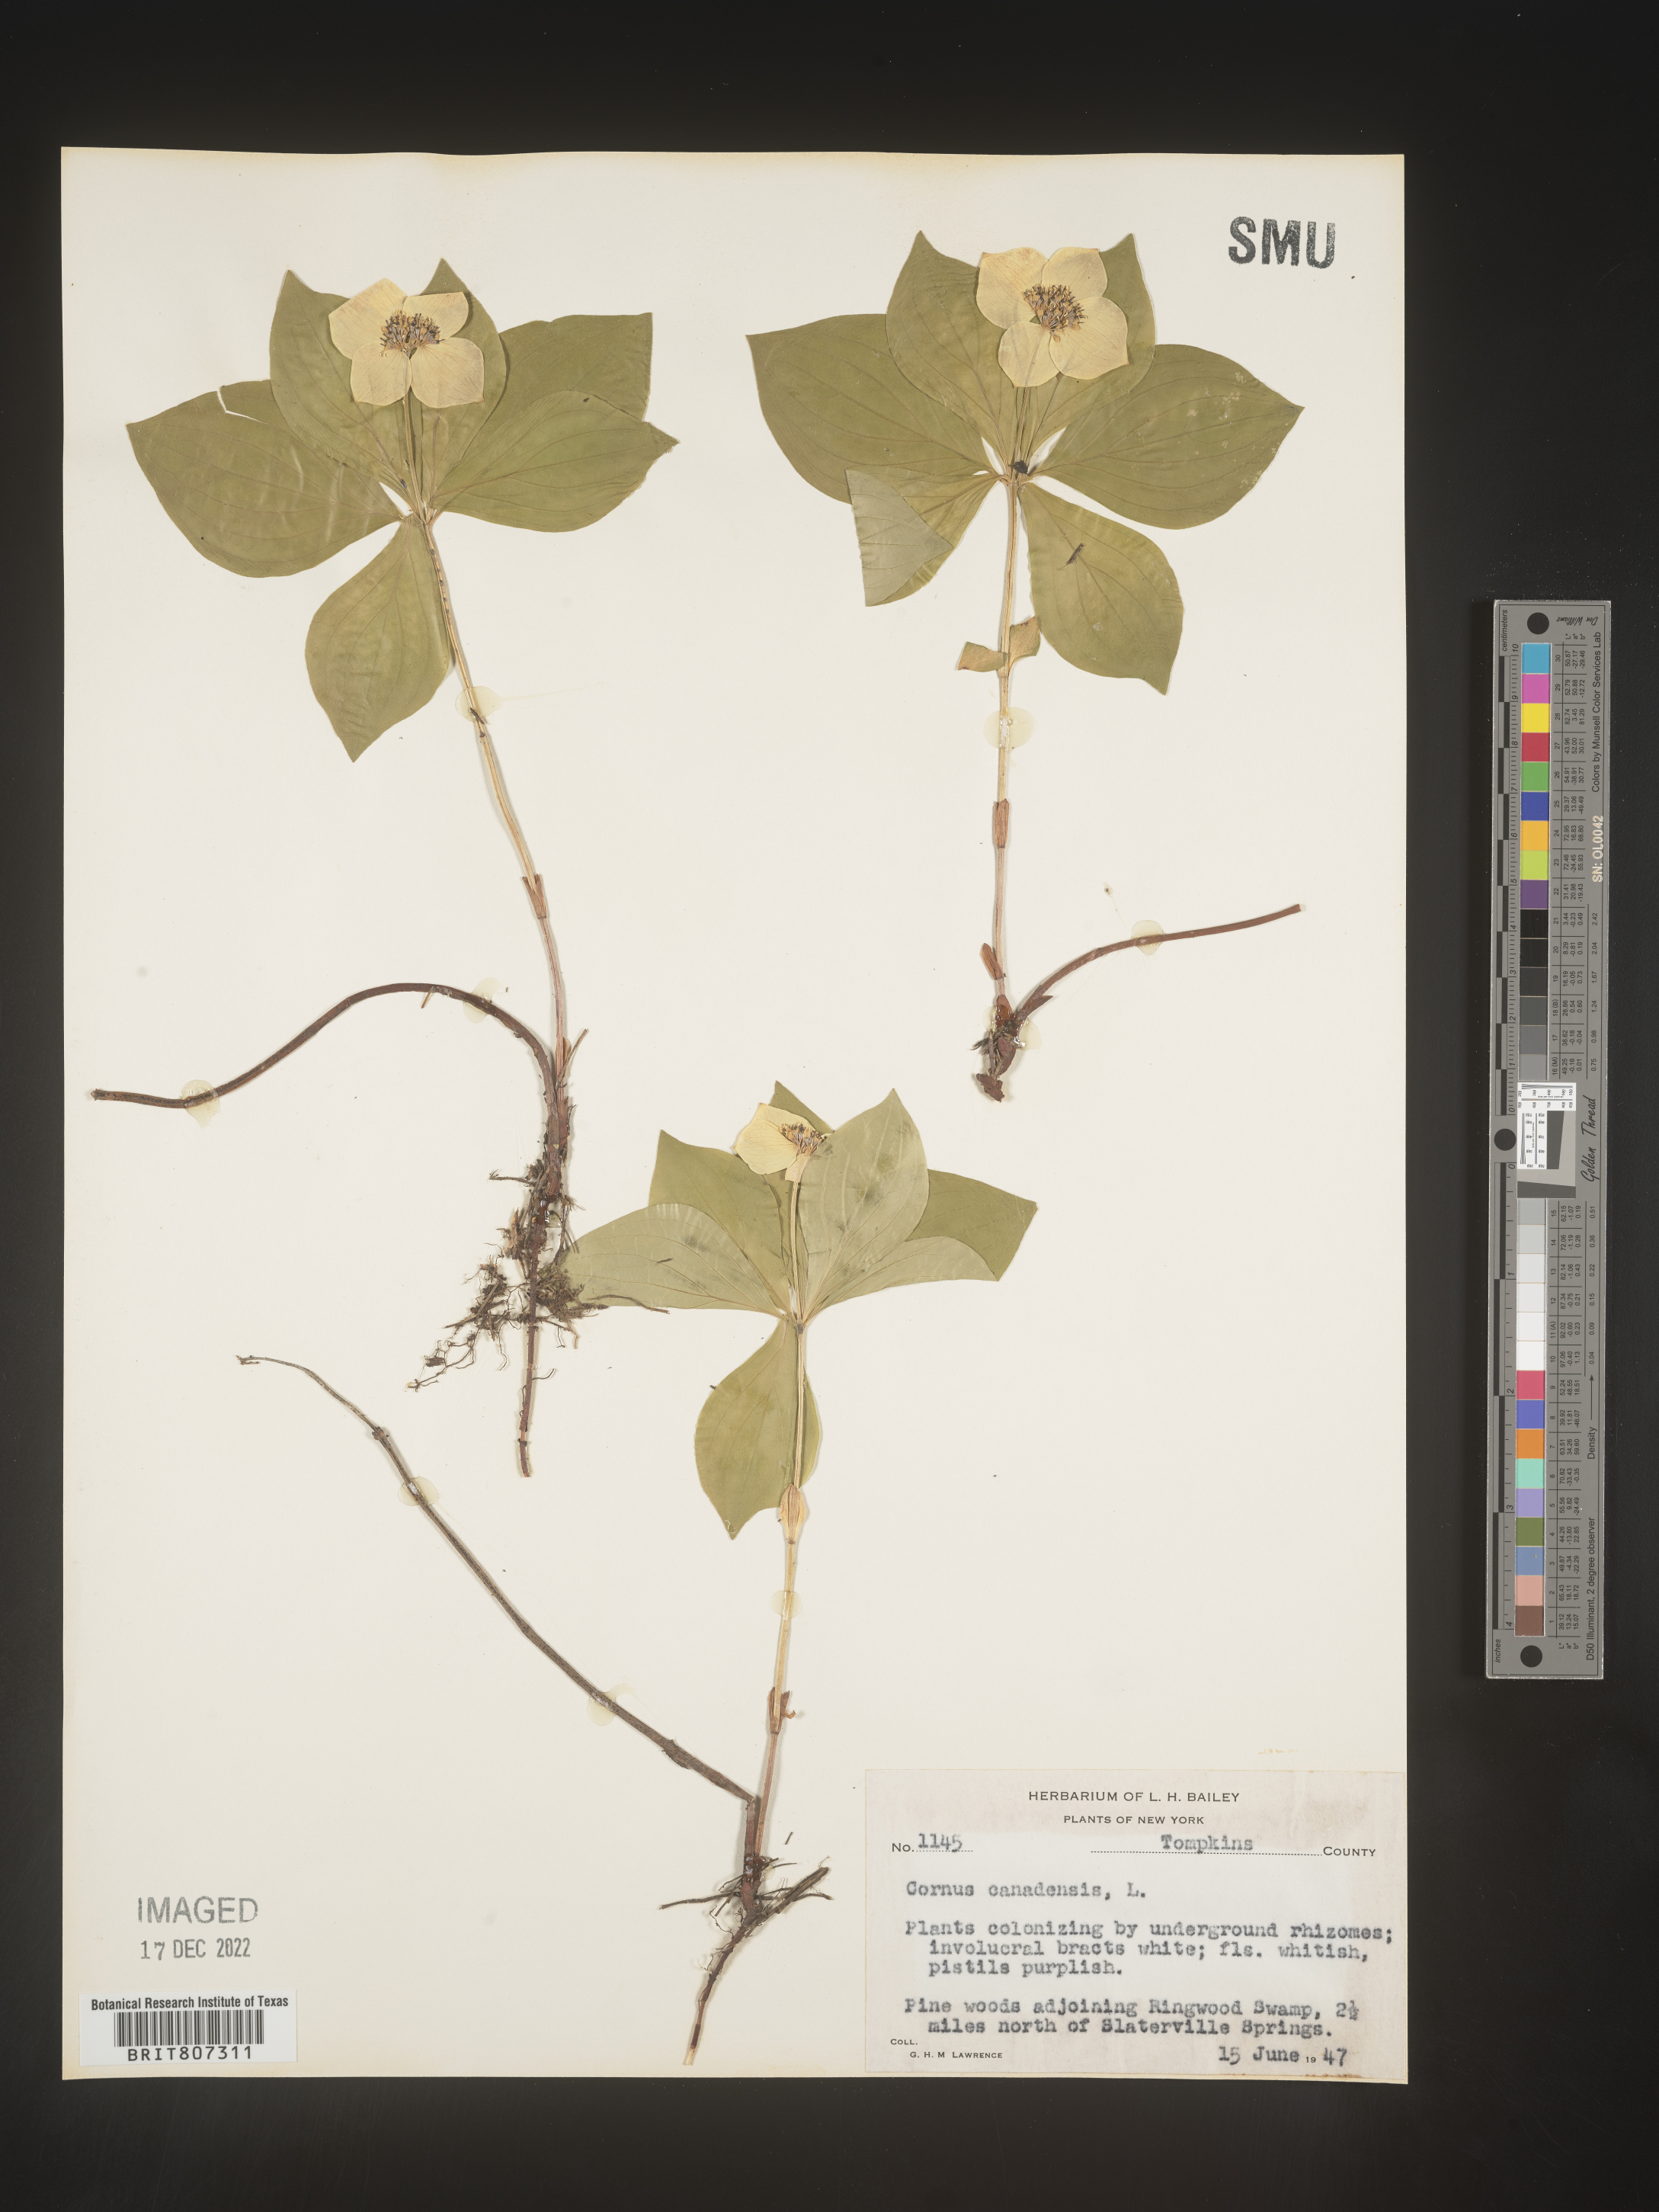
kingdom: Plantae
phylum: Tracheophyta
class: Magnoliopsida
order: Cornales
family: Cornaceae
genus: Cornus
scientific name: Cornus canadensis
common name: Creeping dogwood
